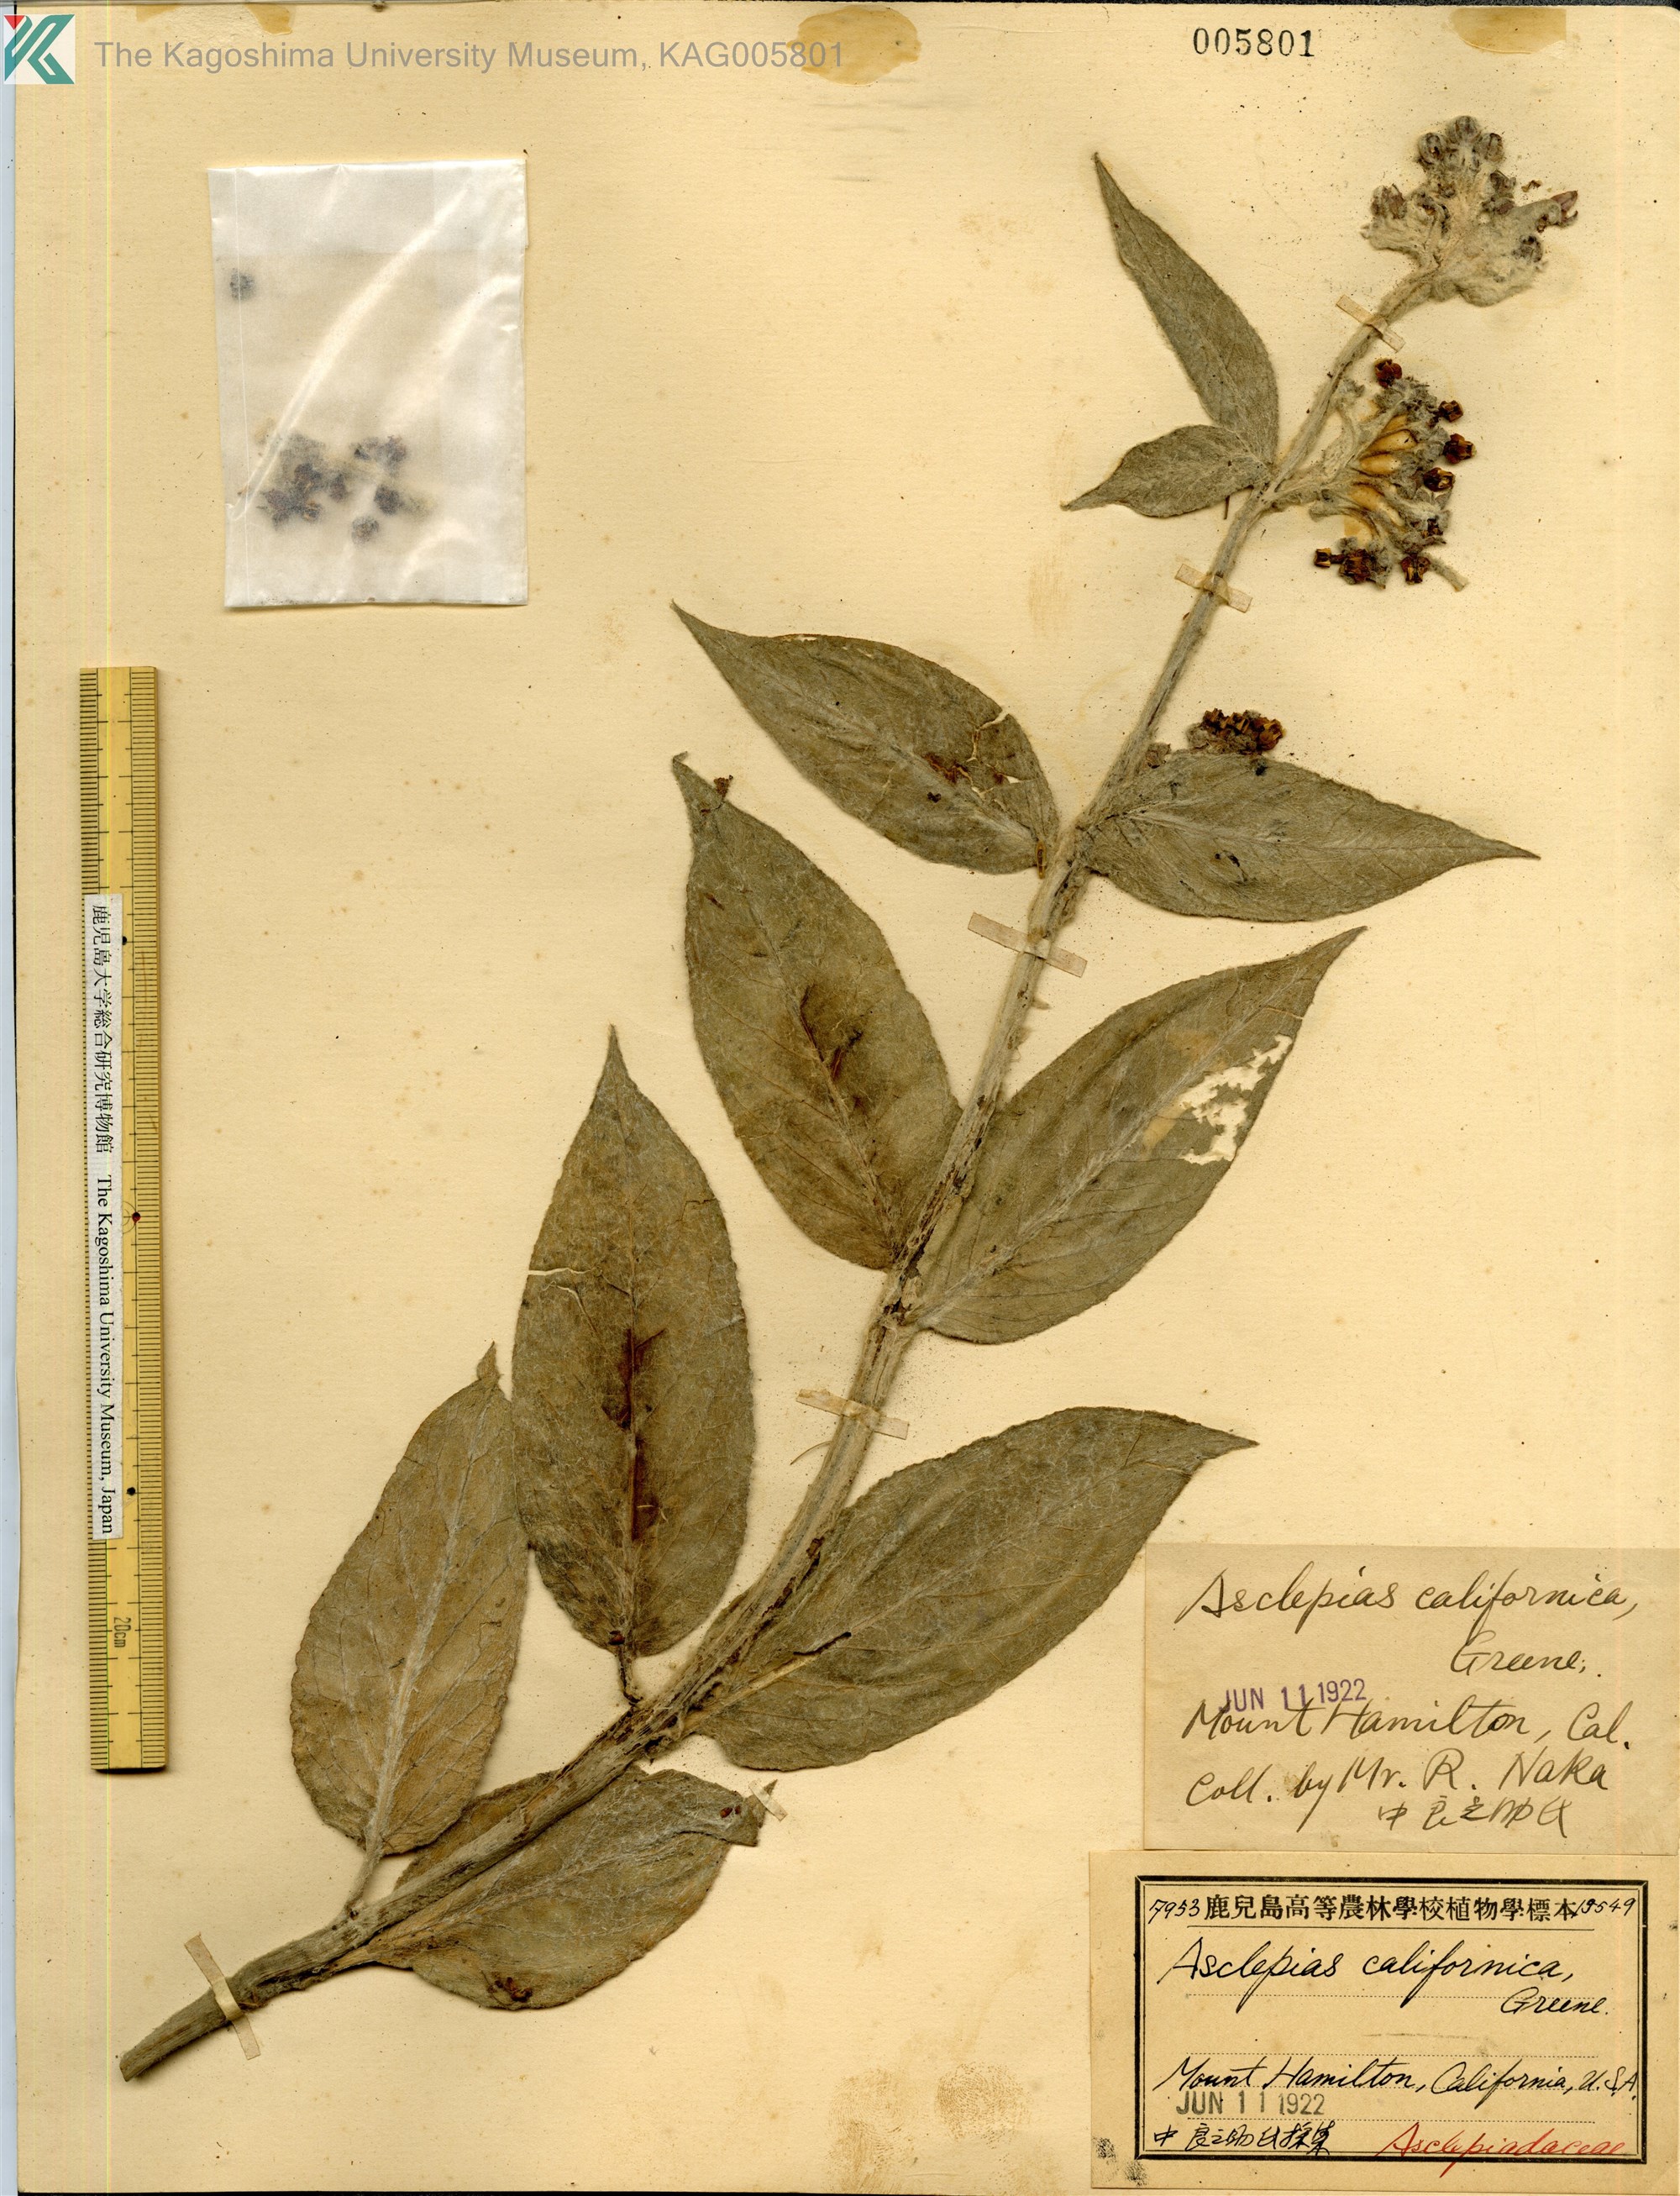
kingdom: Plantae
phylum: Tracheophyta
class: Magnoliopsida
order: Gentianales
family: Apocynaceae
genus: Asclepias
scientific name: Asclepias californica
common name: California milkweed
